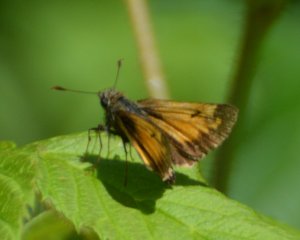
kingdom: Animalia
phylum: Arthropoda
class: Insecta
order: Lepidoptera
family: Hesperiidae
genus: Lon
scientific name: Lon hobomok
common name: Hobomok Skipper
